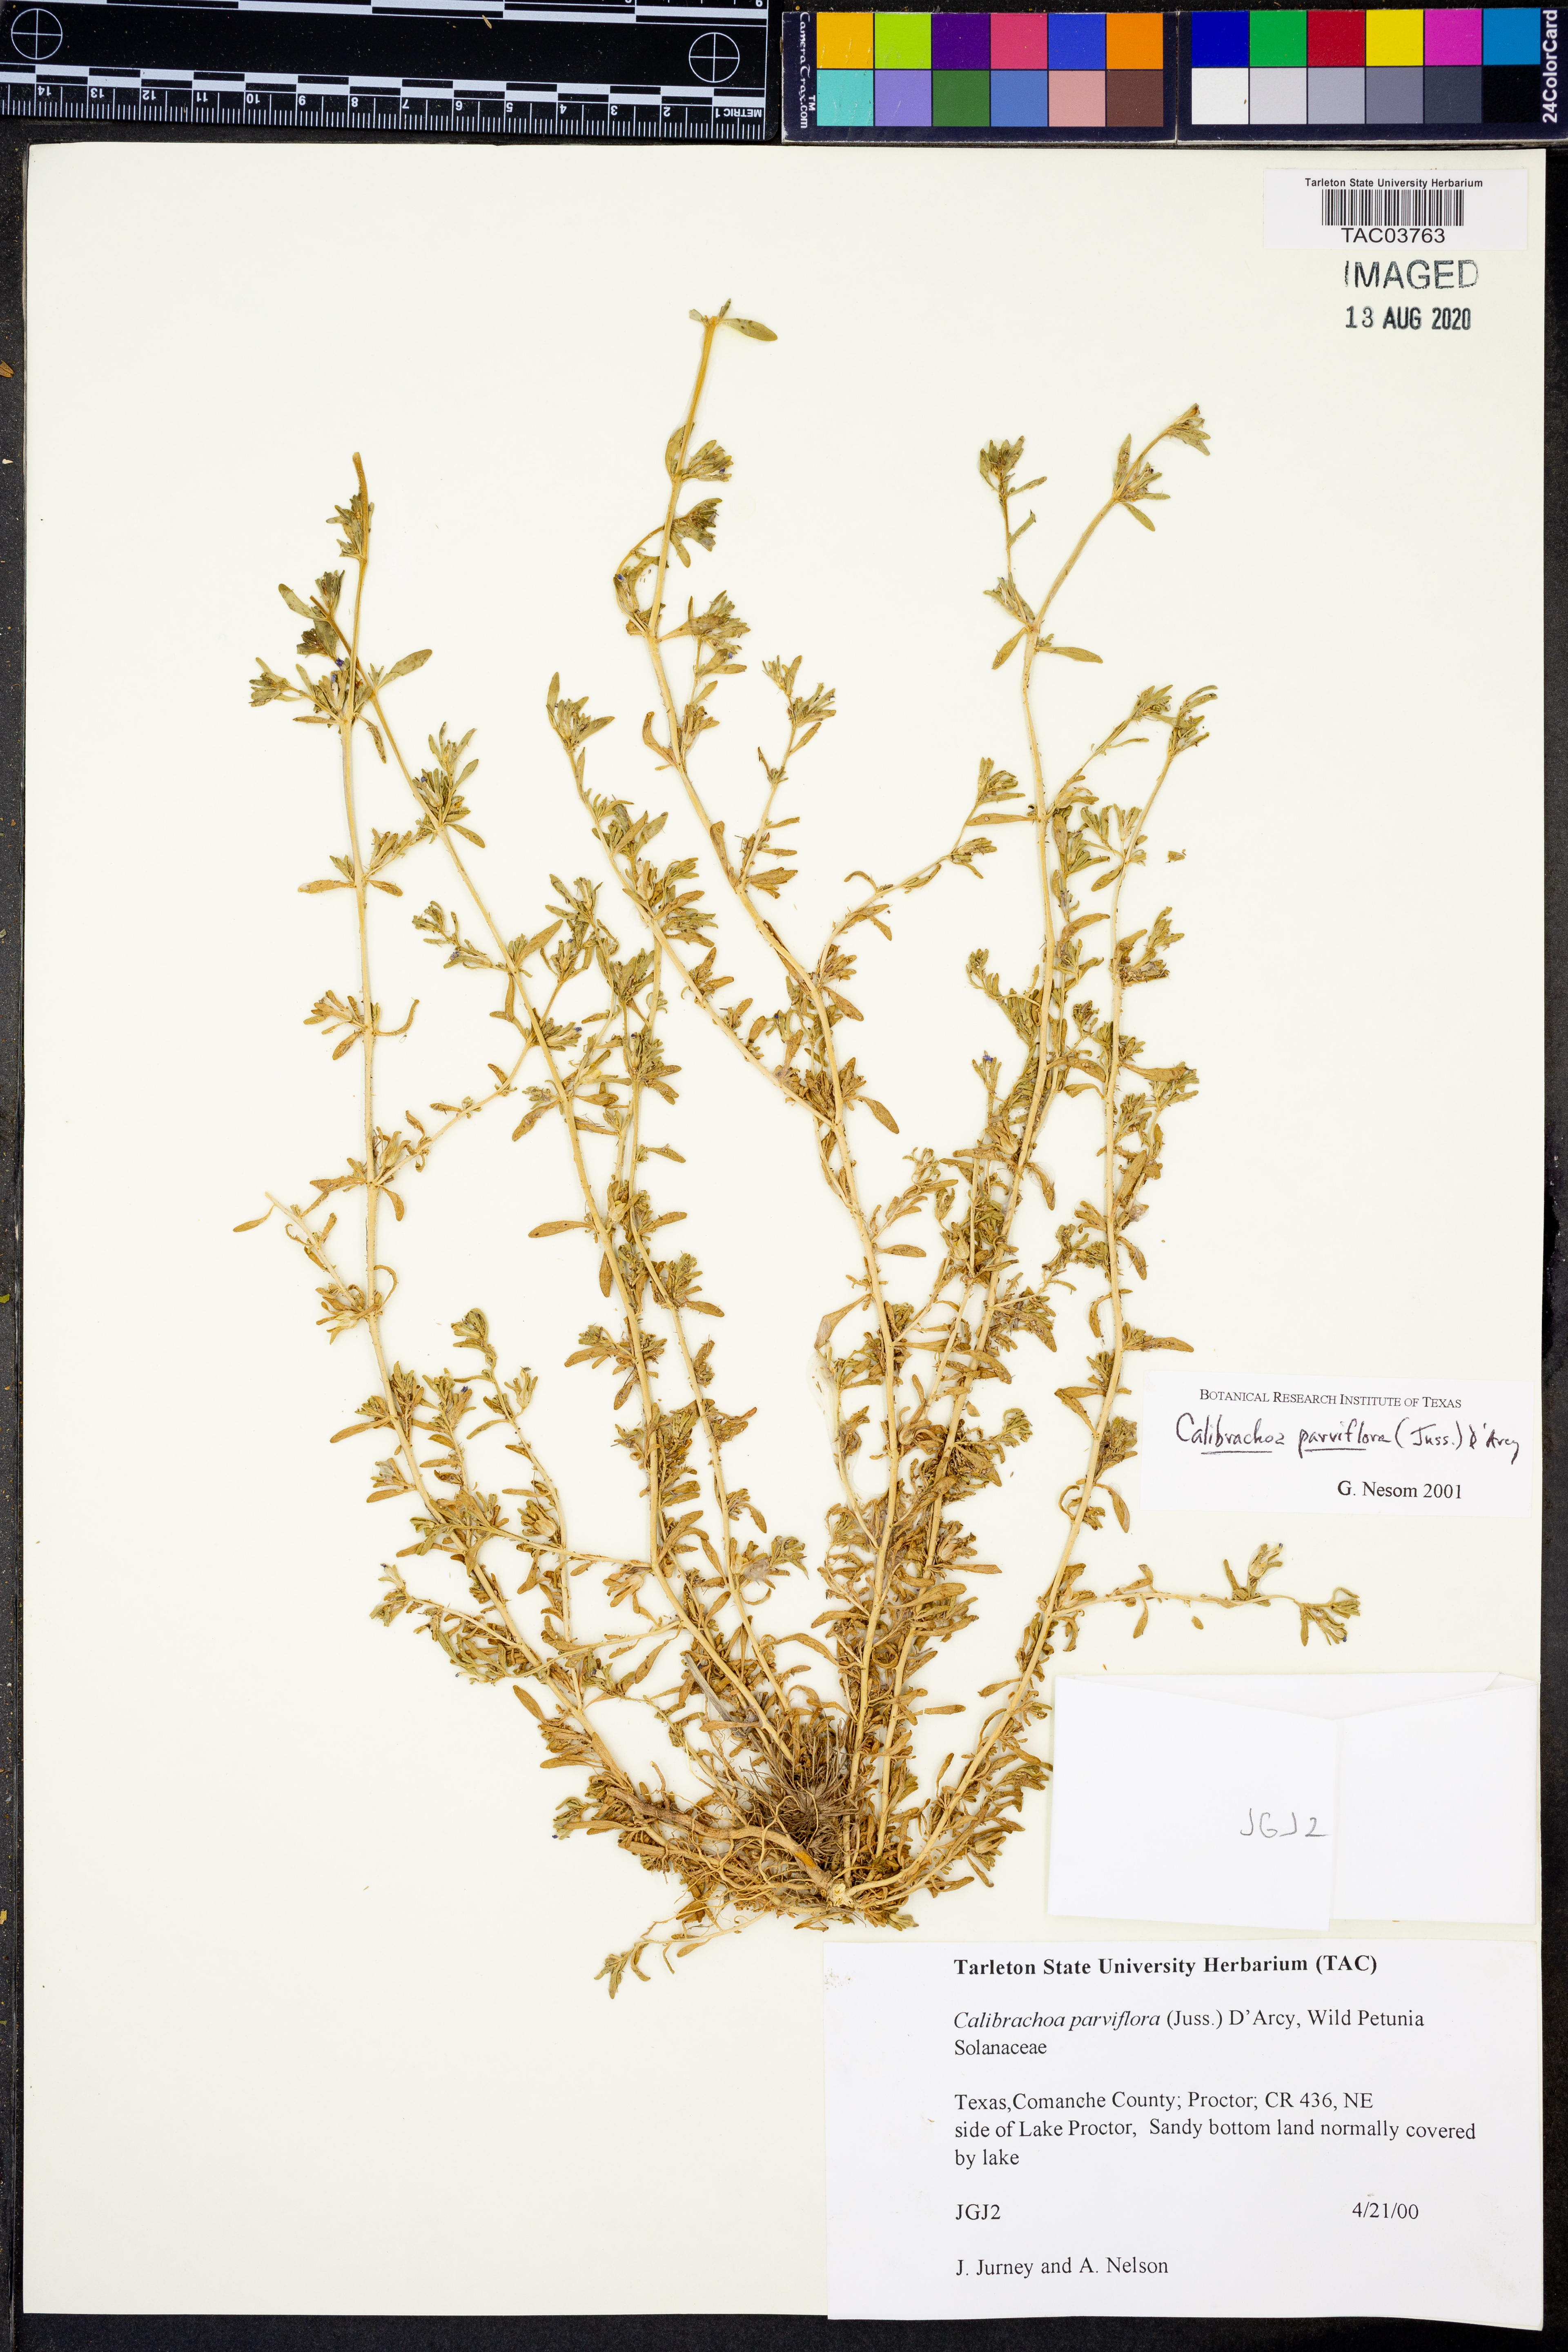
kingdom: Plantae
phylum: Tracheophyta
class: Magnoliopsida
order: Solanales
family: Solanaceae
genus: Calibrachoa
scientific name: Calibrachoa parviflora
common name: Seaside petunia
